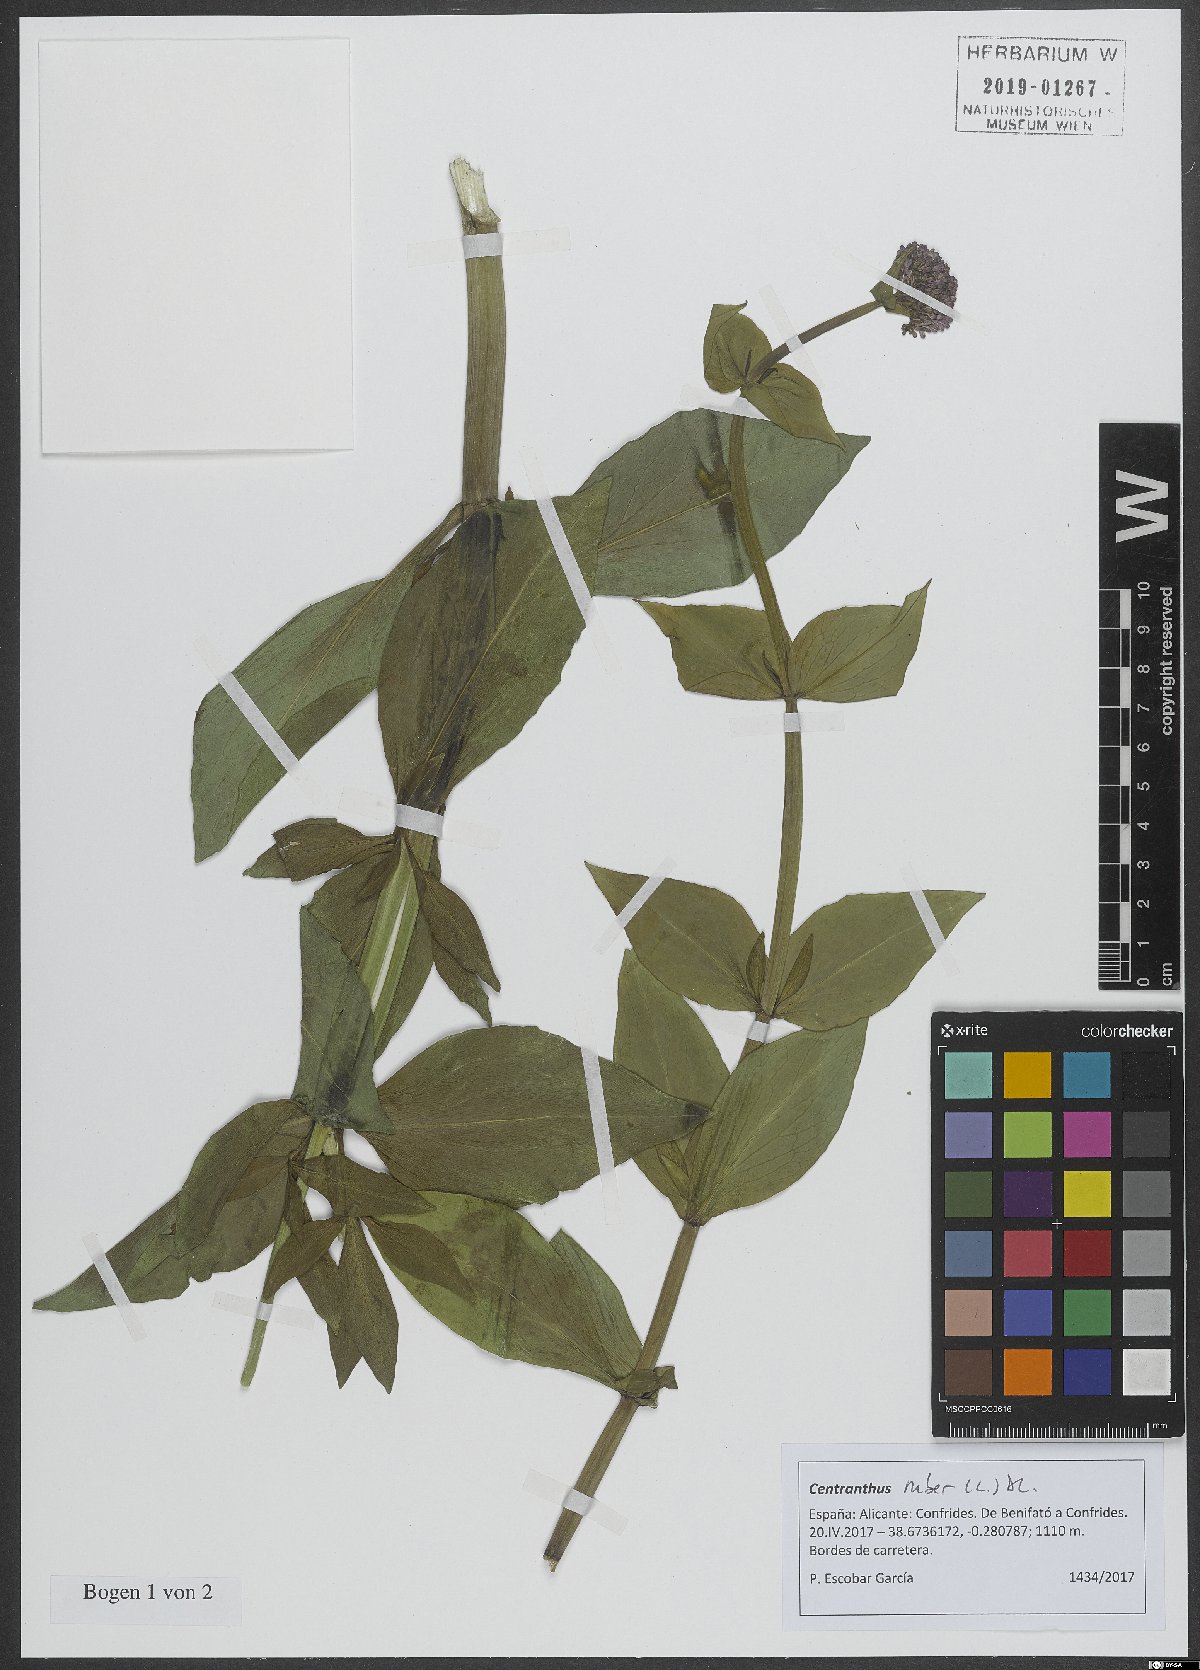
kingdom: Plantae
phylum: Tracheophyta
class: Magnoliopsida
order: Dipsacales
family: Caprifoliaceae
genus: Centranthus
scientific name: Centranthus ruber
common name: Red valerian
